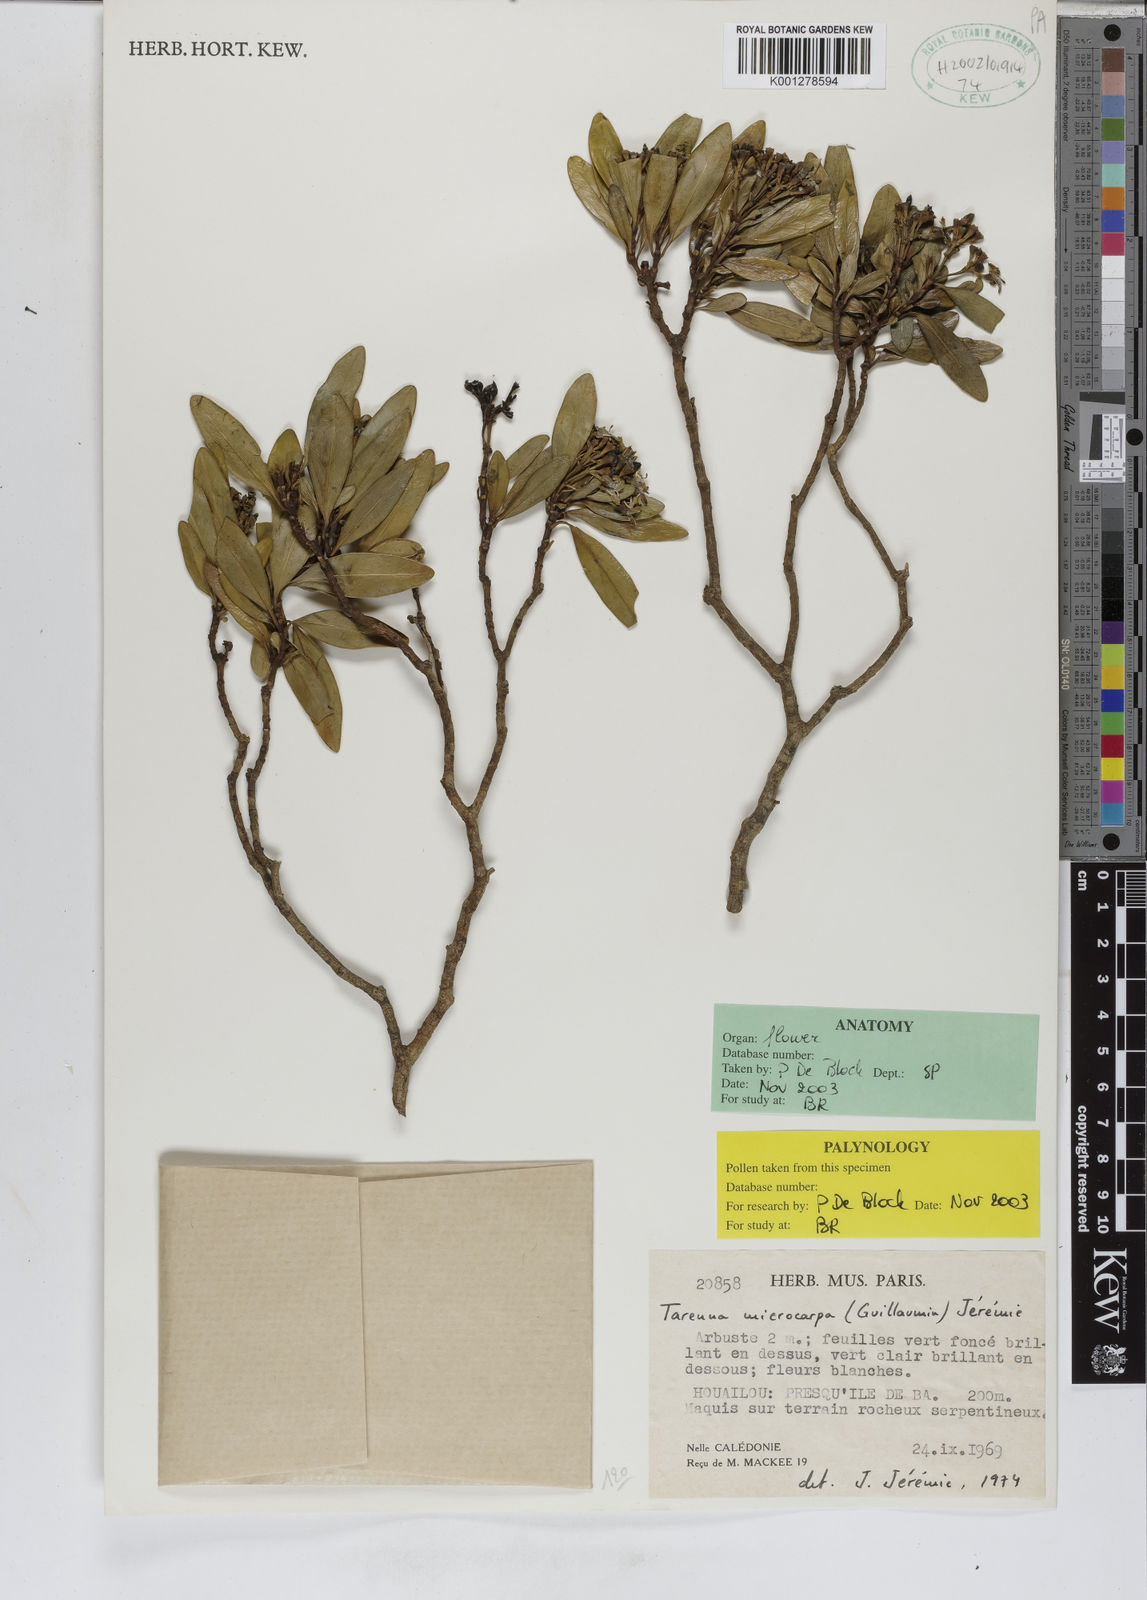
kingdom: Plantae
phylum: Tracheophyta
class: Magnoliopsida
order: Gentianales
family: Rubiaceae
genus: Tarenna
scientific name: Tarenna
